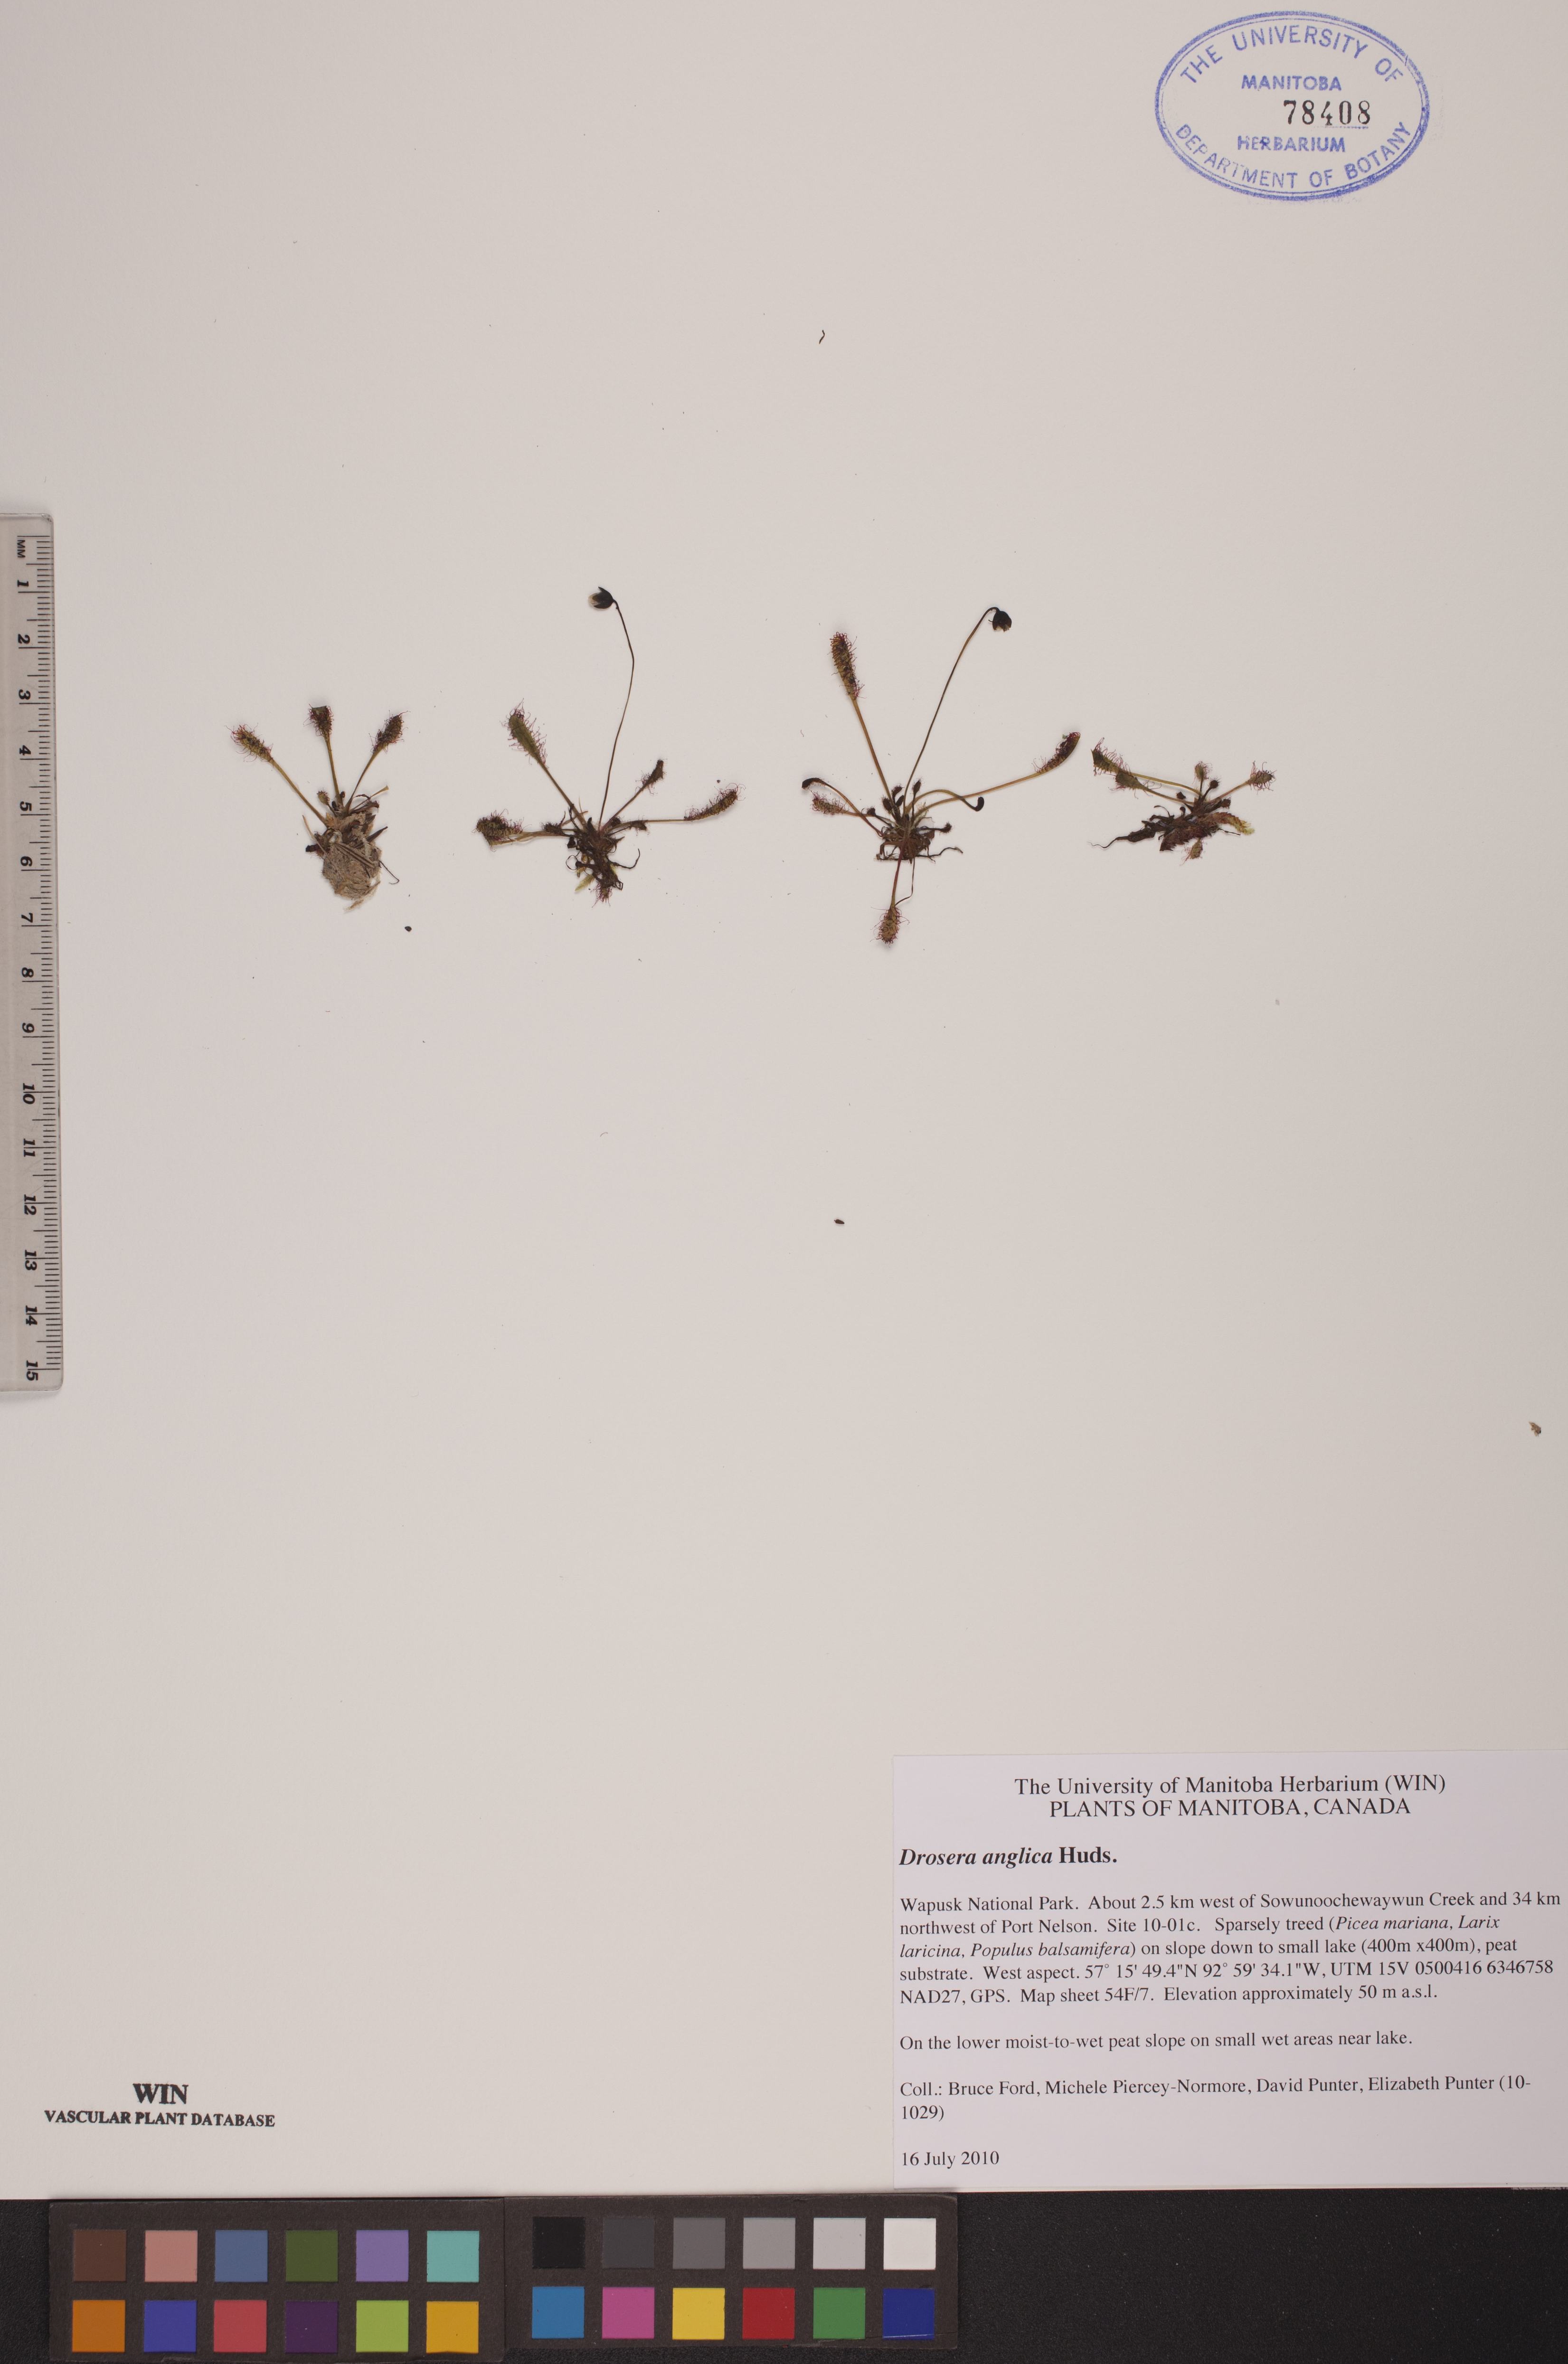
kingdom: Plantae
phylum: Tracheophyta
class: Magnoliopsida
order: Caryophyllales
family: Droseraceae
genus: Drosera
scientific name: Drosera anglica
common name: Great sundew
